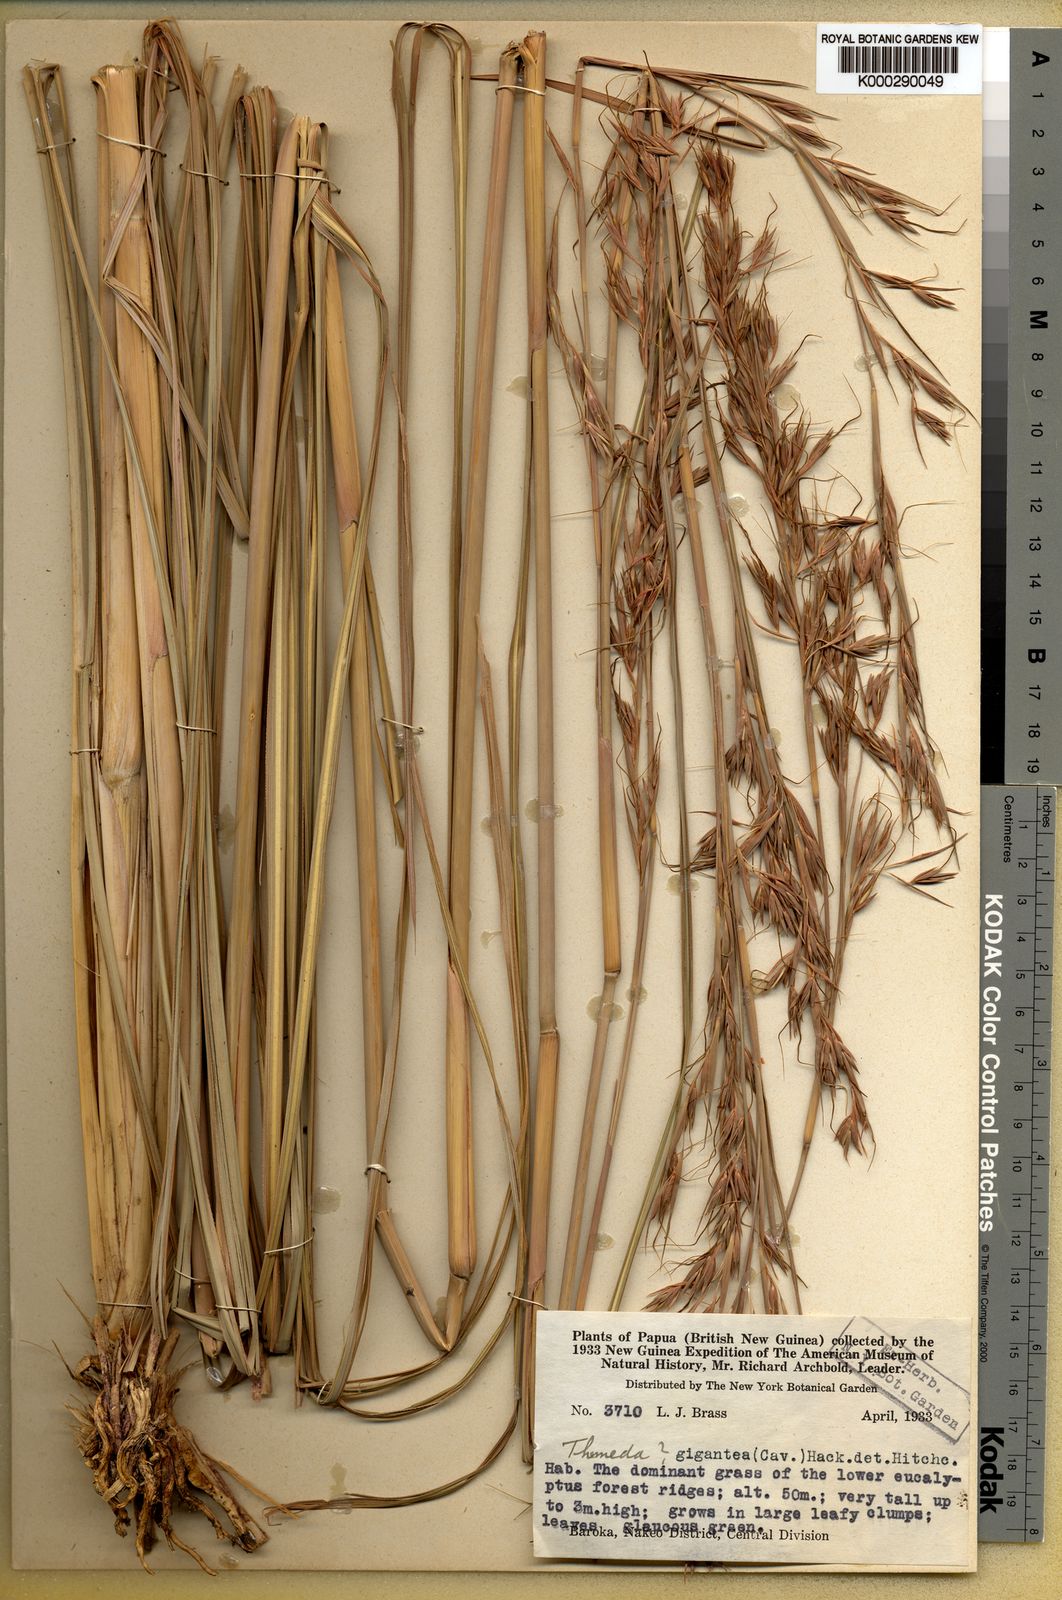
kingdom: Plantae
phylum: Tracheophyta
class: Liliopsida
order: Poales
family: Poaceae
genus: Themeda
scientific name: Themeda novoguineensis
